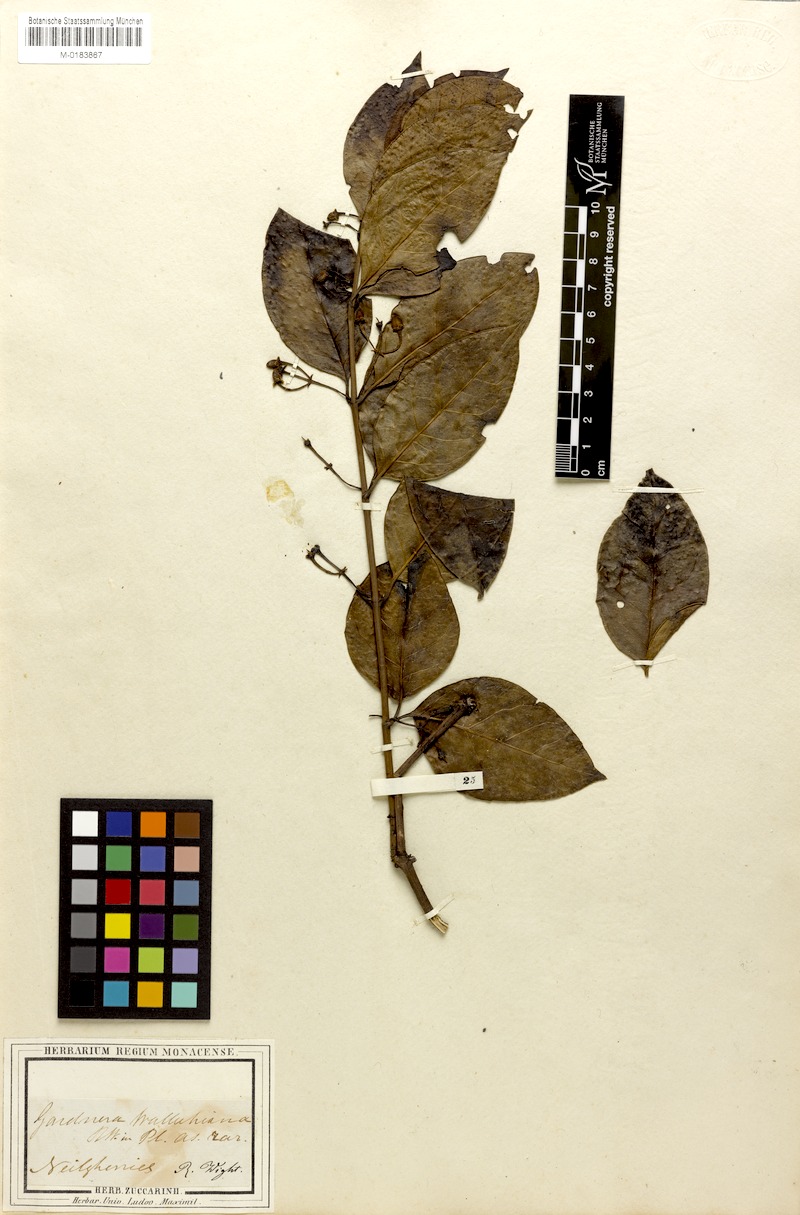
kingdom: Plantae
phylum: Tracheophyta
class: Magnoliopsida
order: Gentianales
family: Loganiaceae
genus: Gardneria
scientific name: Gardneria ovata
